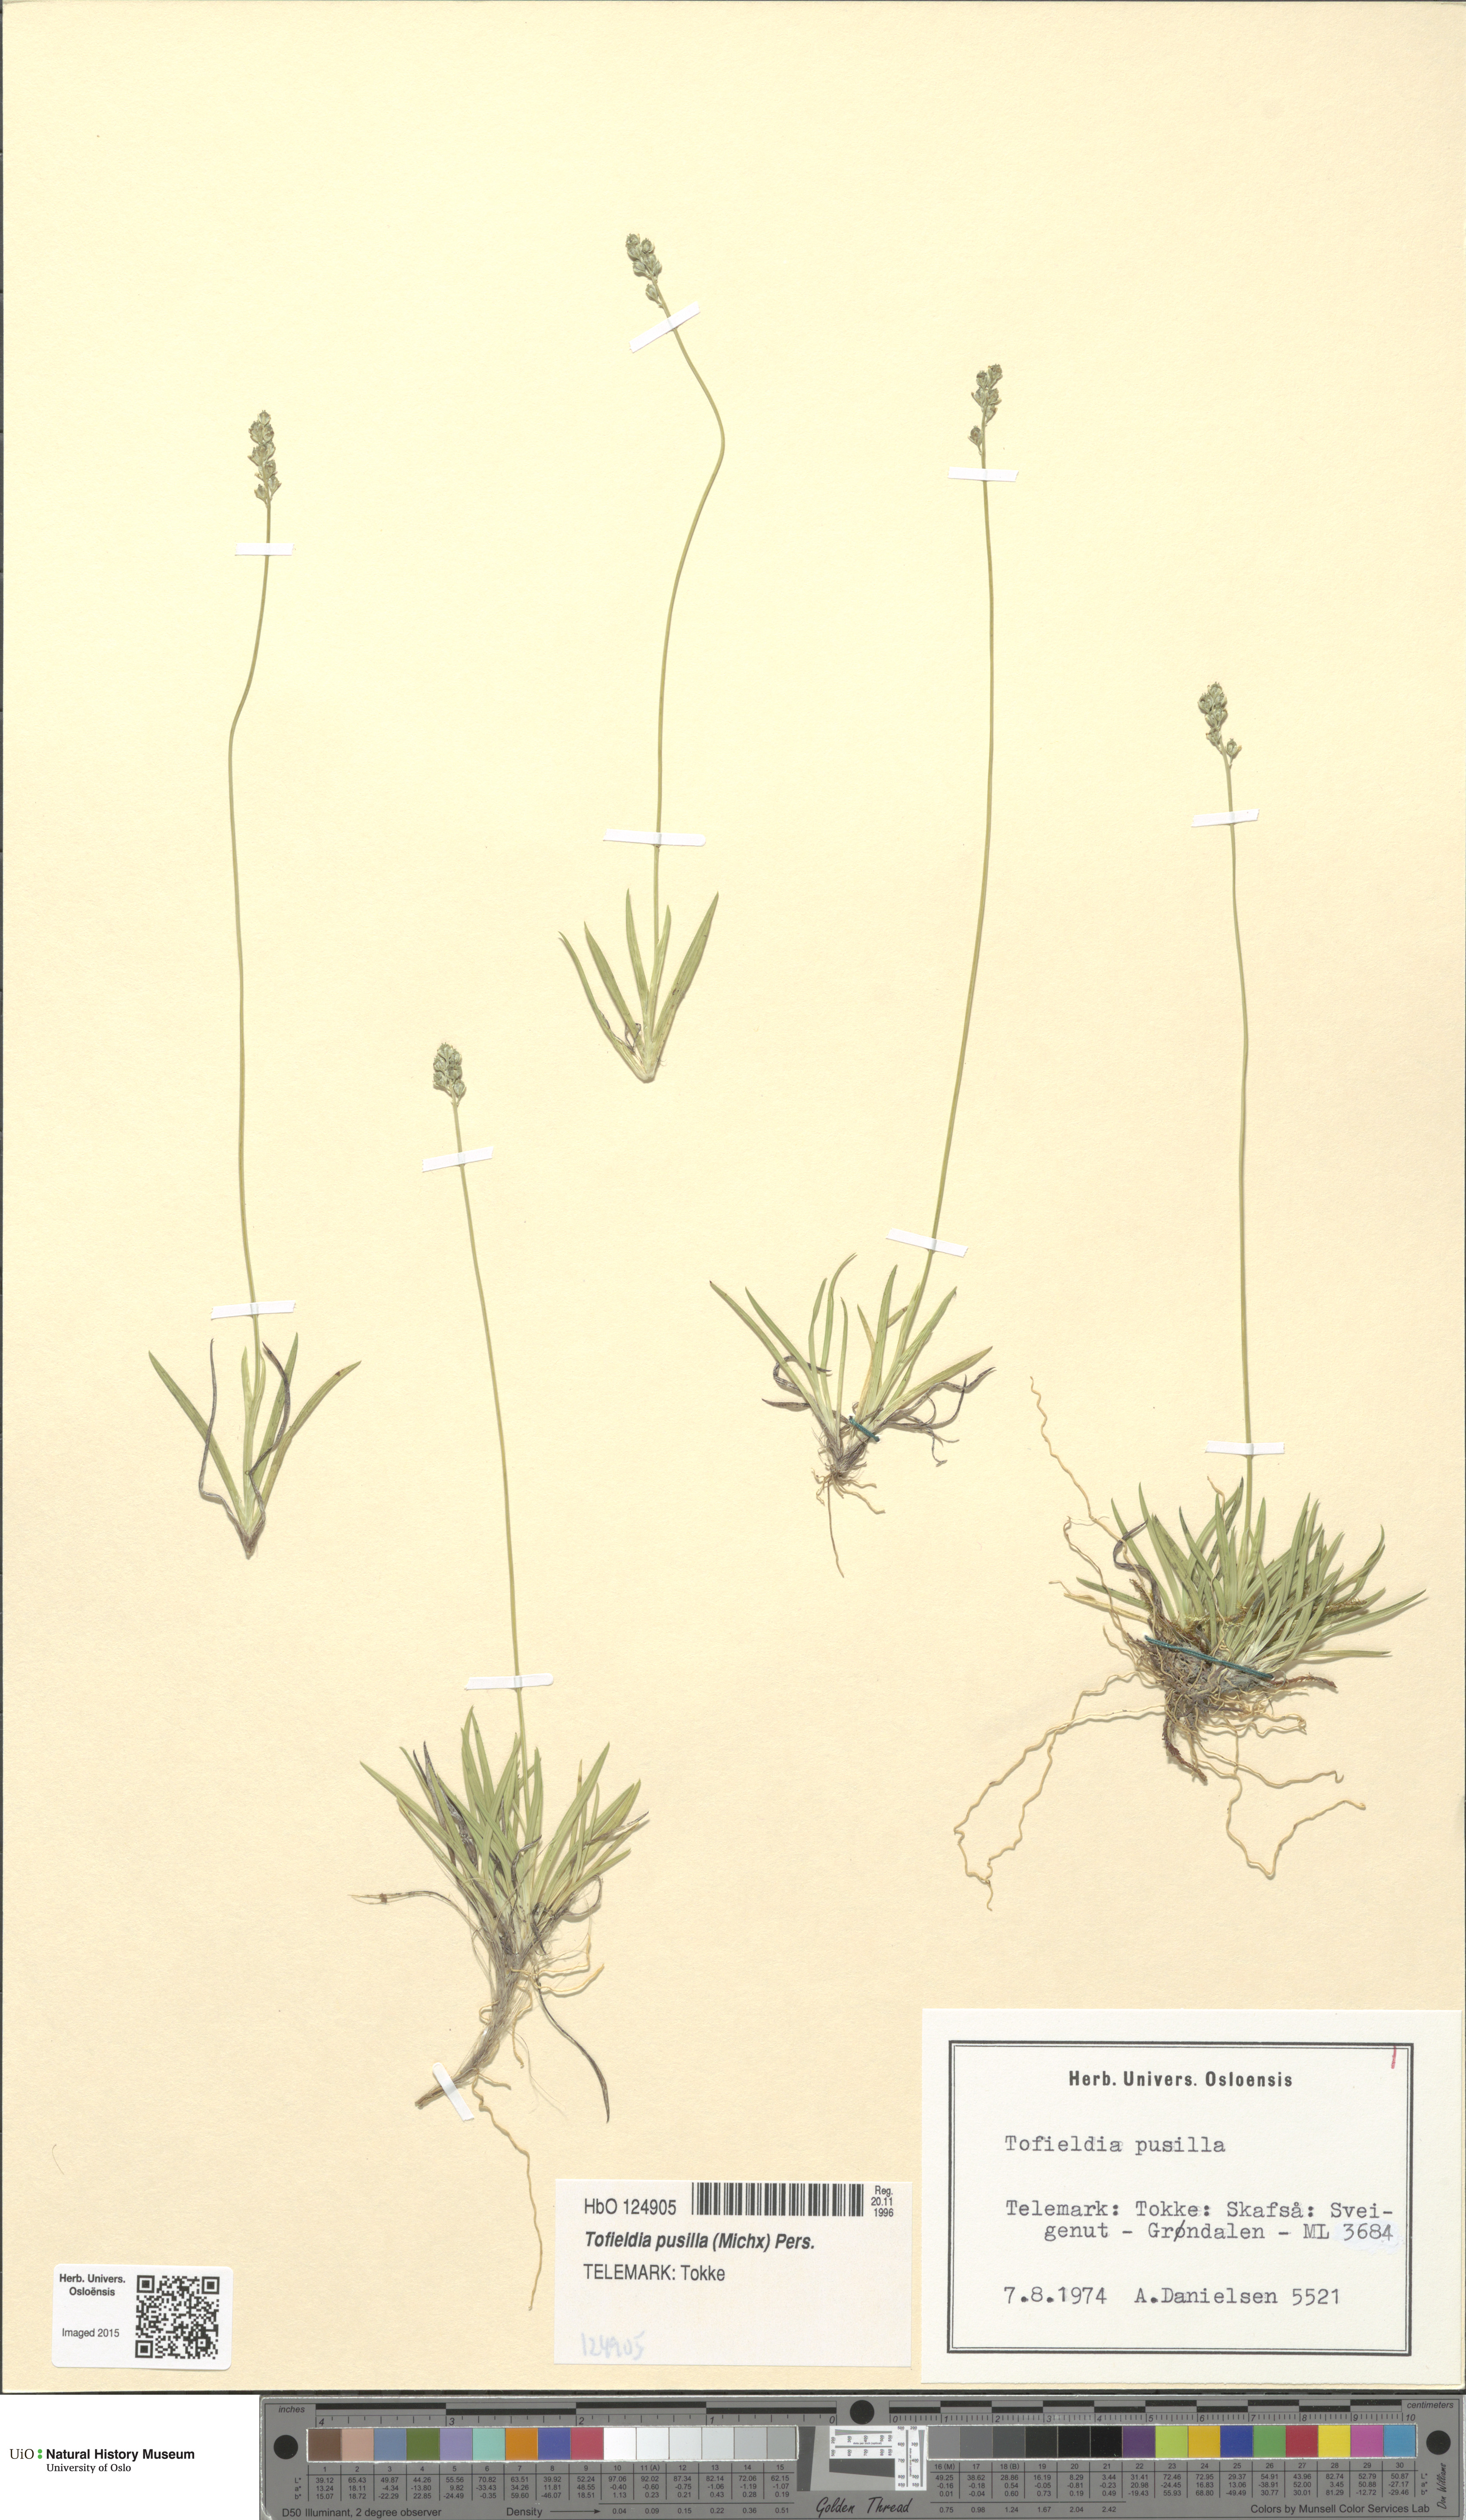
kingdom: Plantae
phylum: Tracheophyta
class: Liliopsida
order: Alismatales
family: Tofieldiaceae
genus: Tofieldia
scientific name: Tofieldia pusilla
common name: Scottish false asphodel
